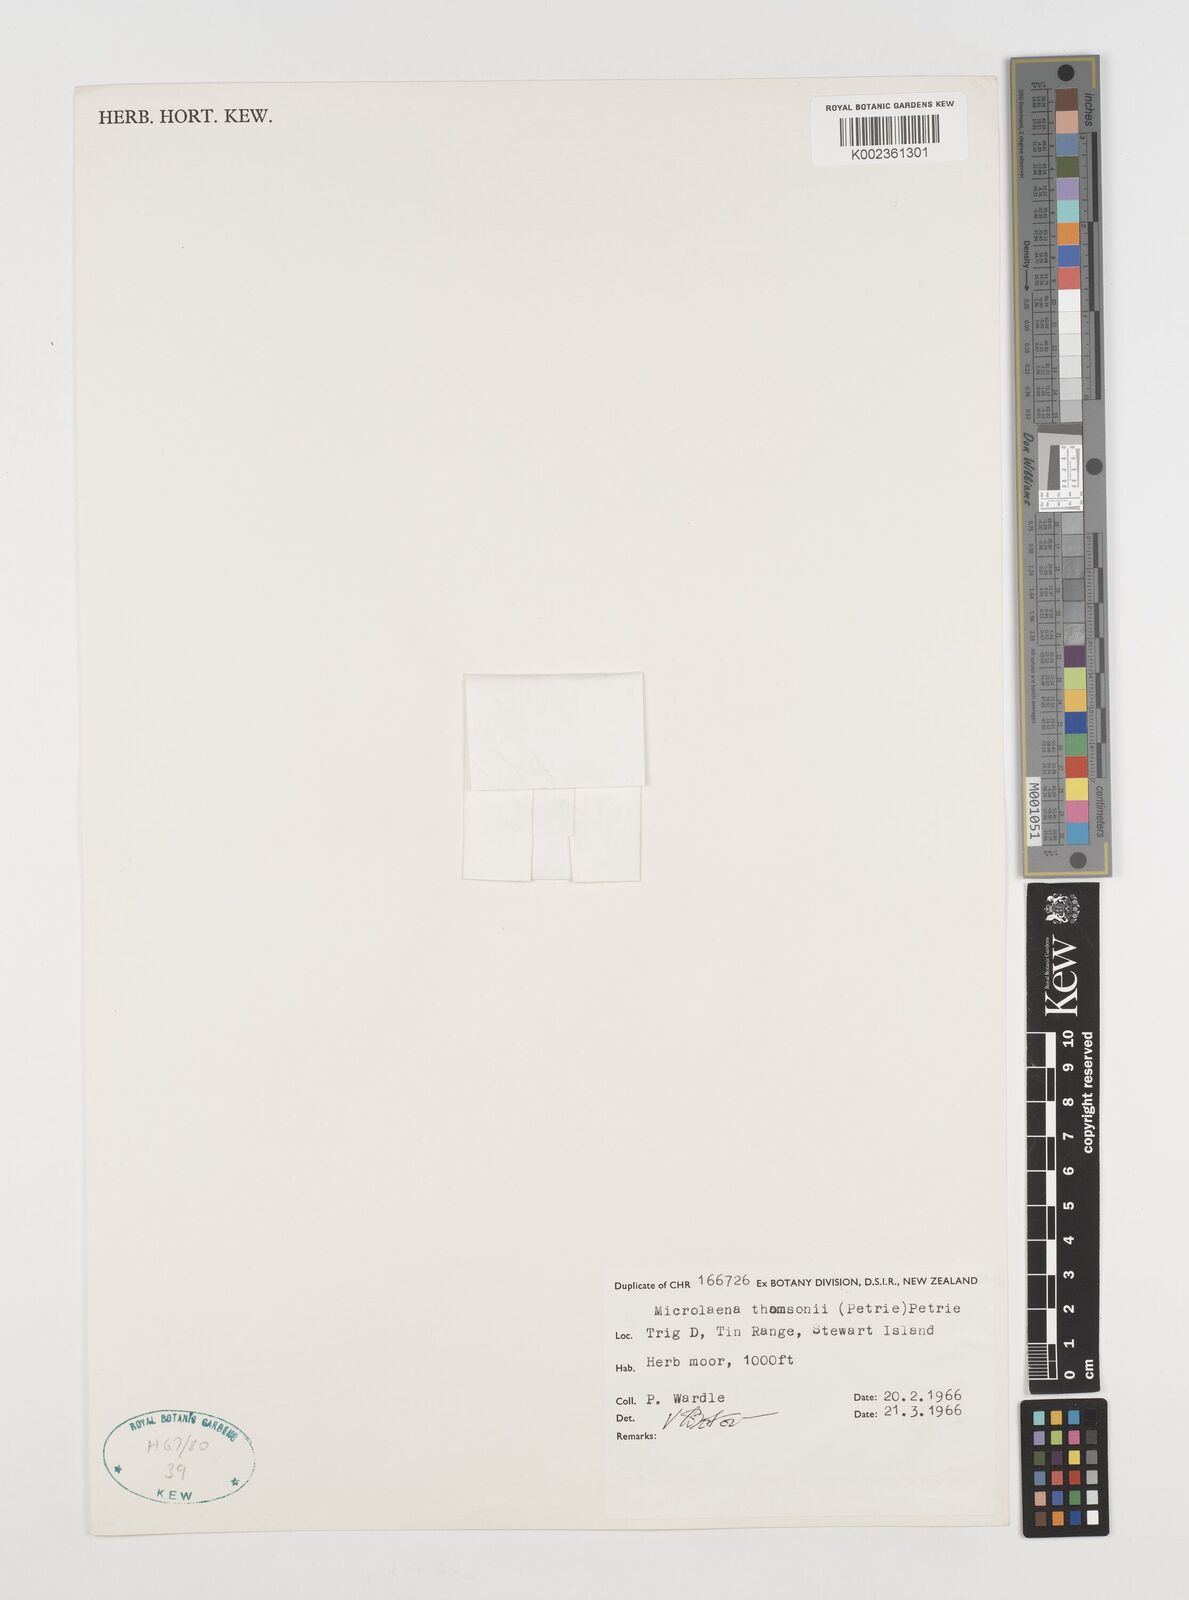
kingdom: Plantae
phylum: Tracheophyta
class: Liliopsida
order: Poales
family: Poaceae
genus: Zotovia
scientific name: Zotovia thomsonii
